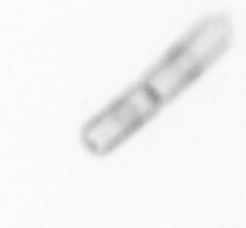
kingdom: Chromista
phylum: Ochrophyta
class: Bacillariophyceae
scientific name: Bacillariophyceae
